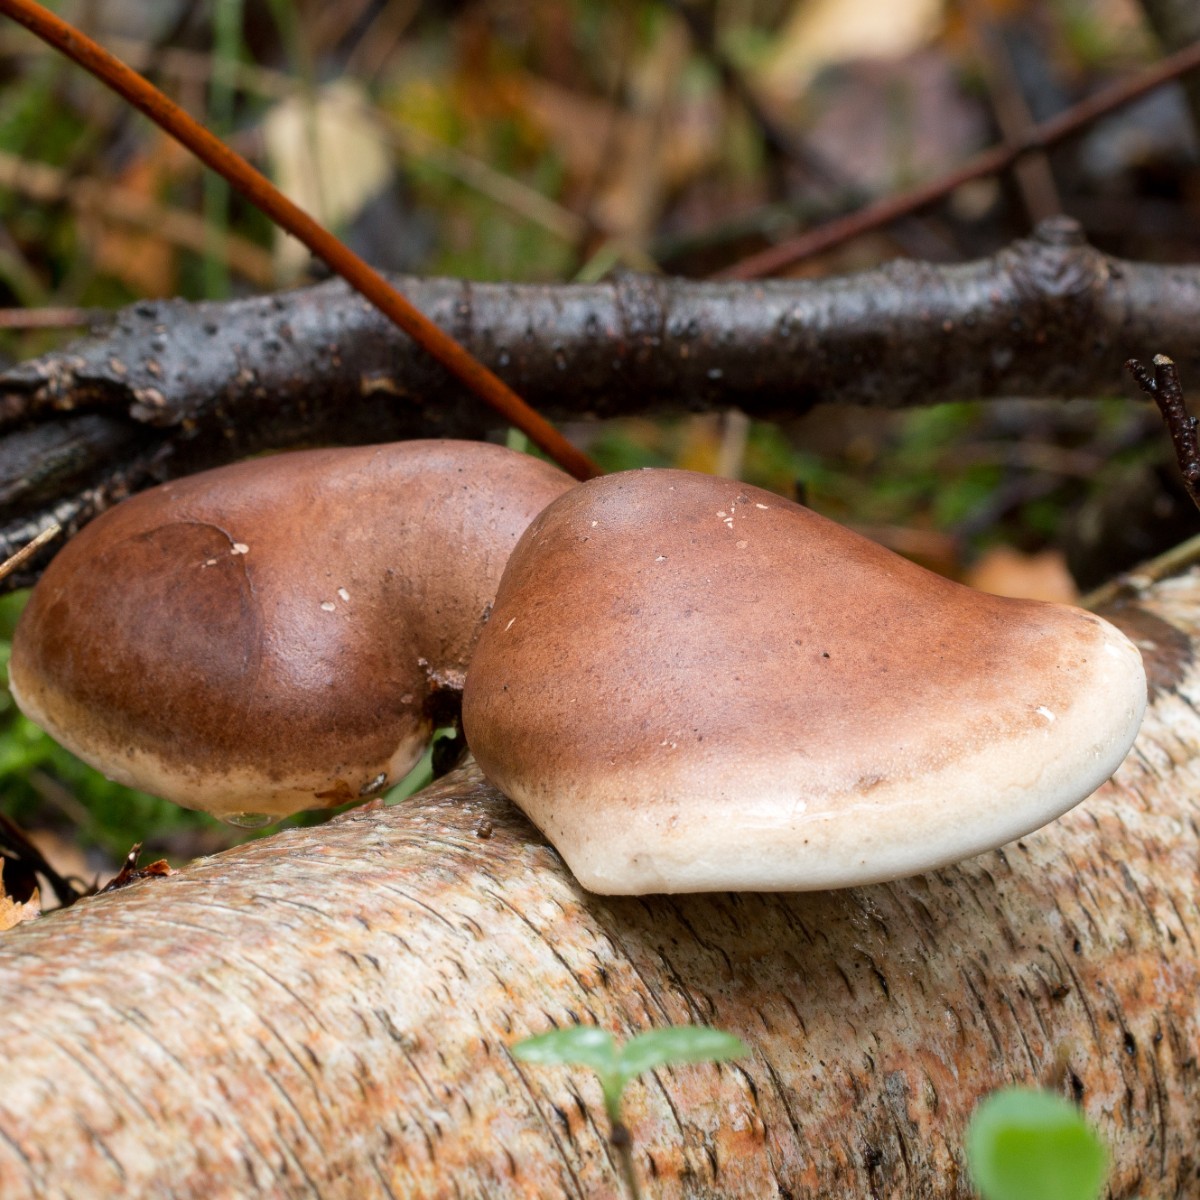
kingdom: Fungi
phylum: Basidiomycota
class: Agaricomycetes
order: Polyporales
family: Fomitopsidaceae
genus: Fomitopsis
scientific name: Fomitopsis betulina
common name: birkeporesvamp
